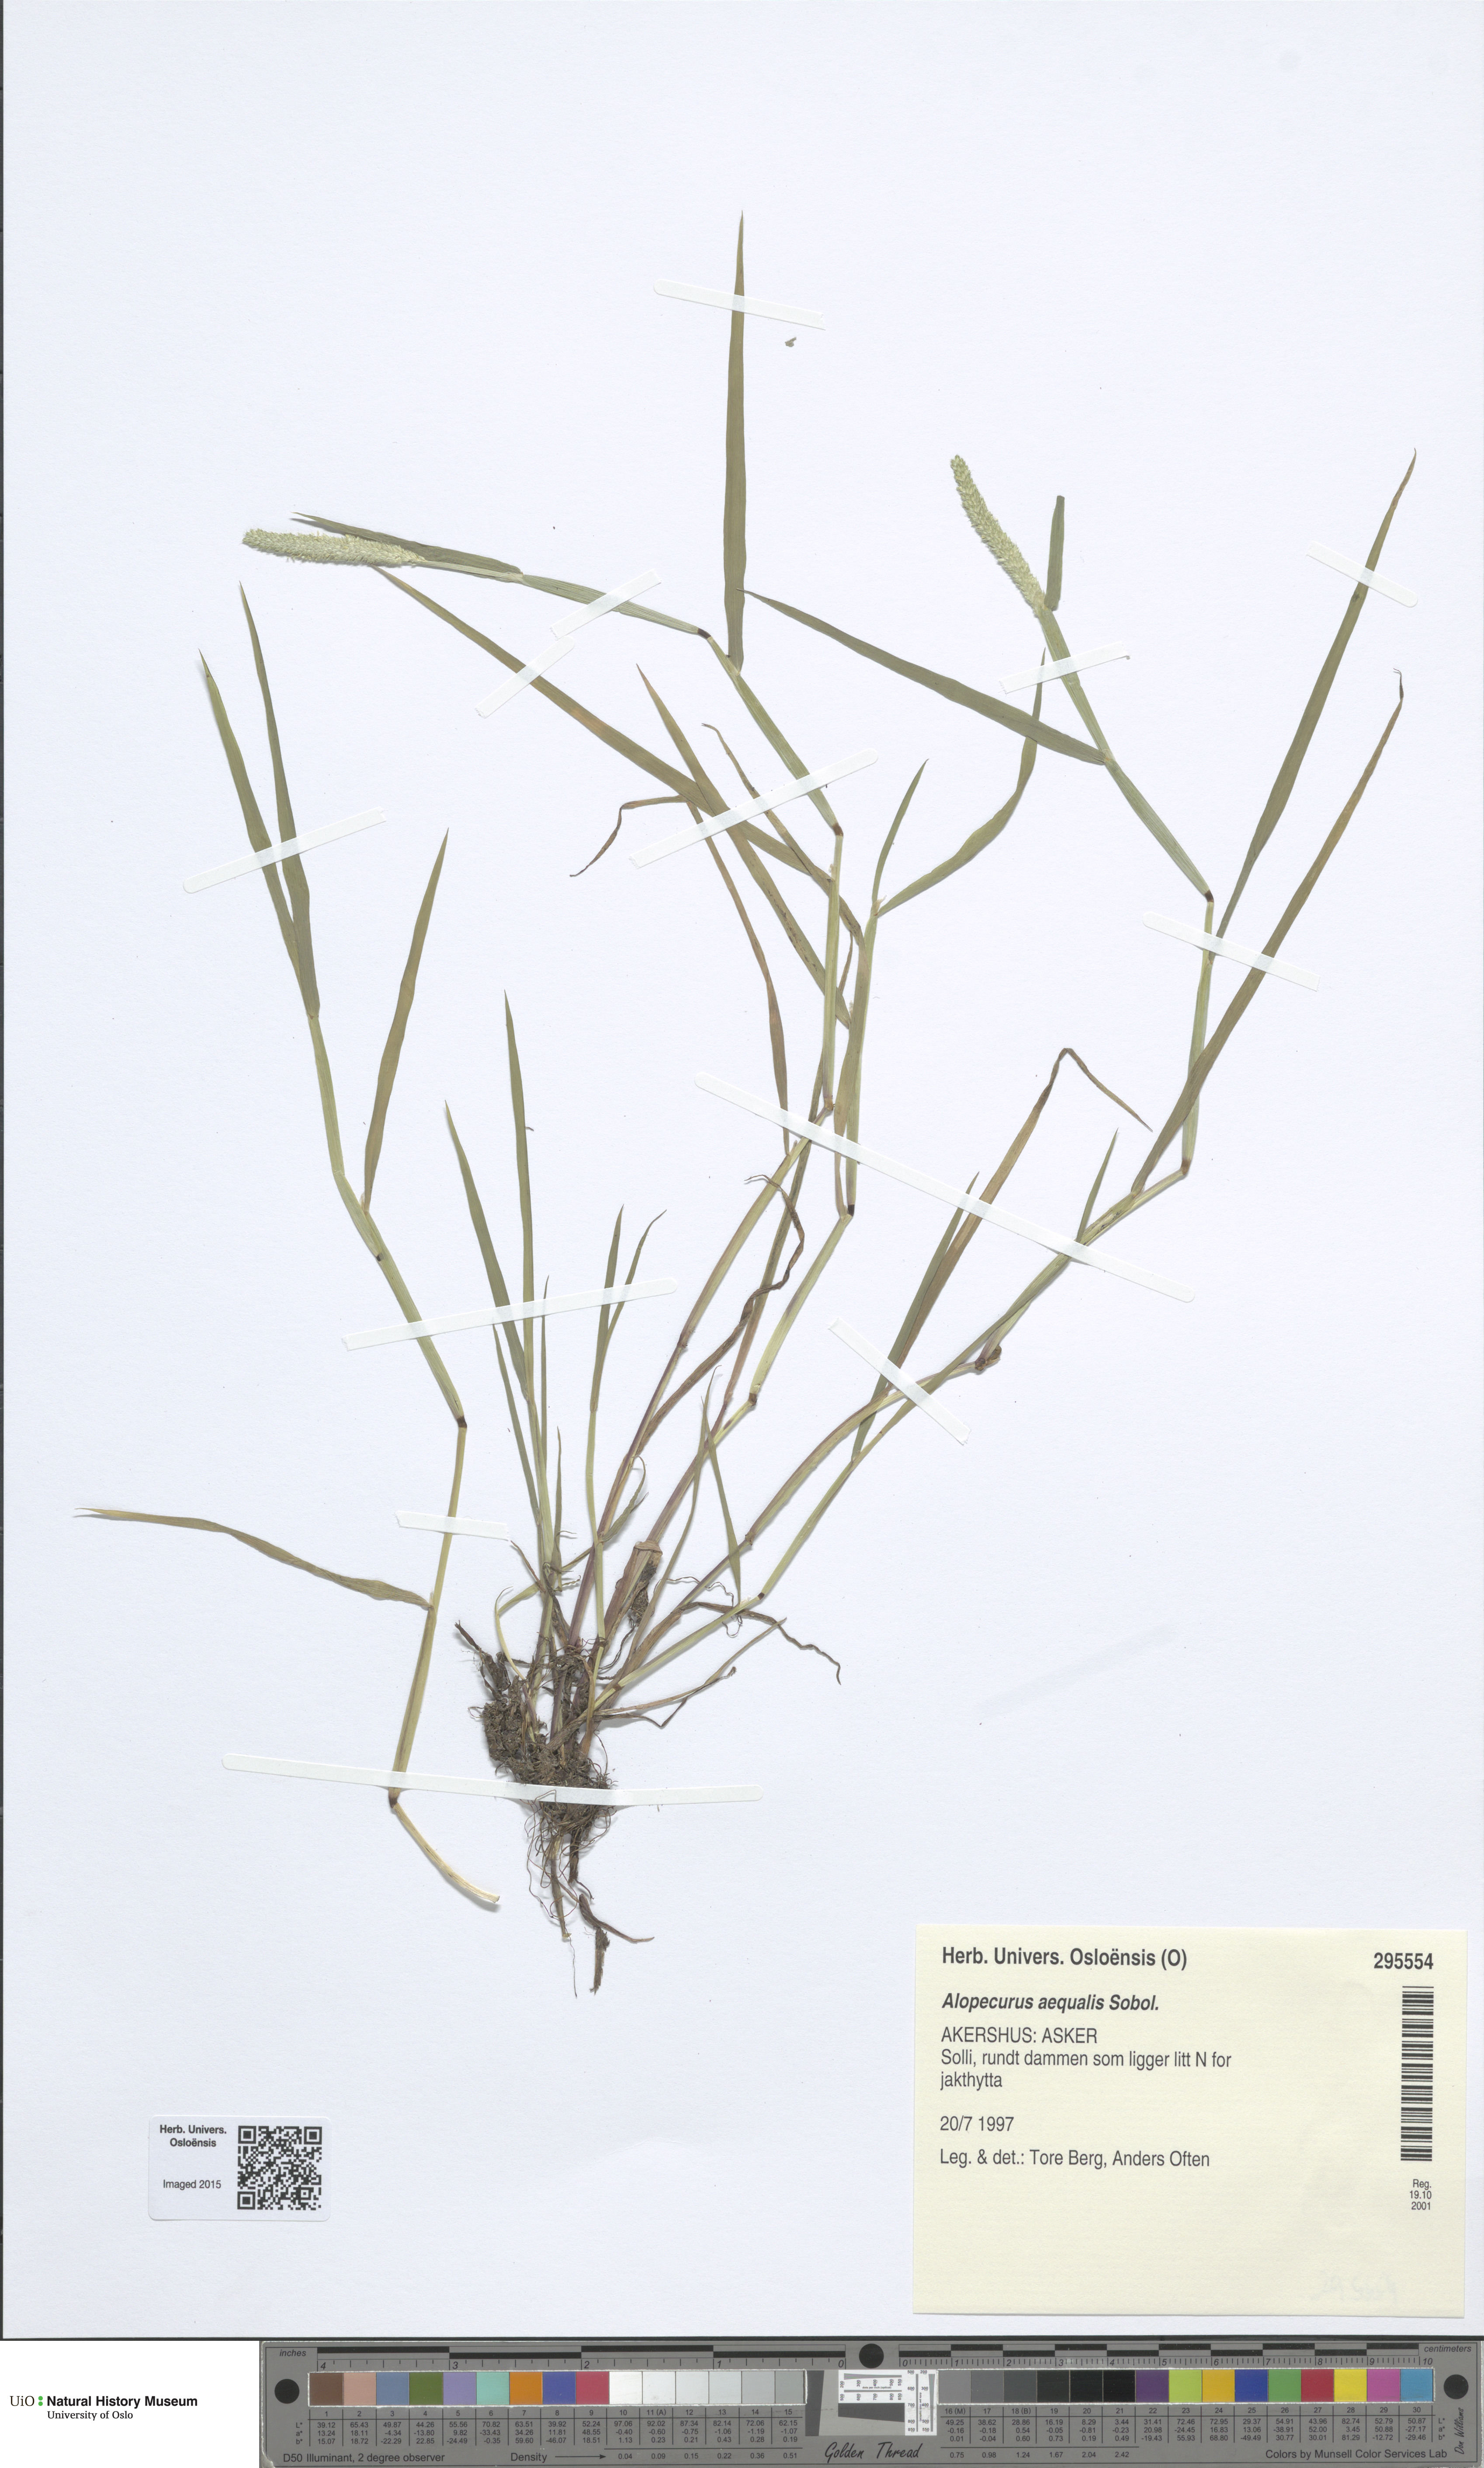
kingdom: Plantae
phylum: Tracheophyta
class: Liliopsida
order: Poales
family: Poaceae
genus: Alopecurus
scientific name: Alopecurus aequalis
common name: Orange foxtail
